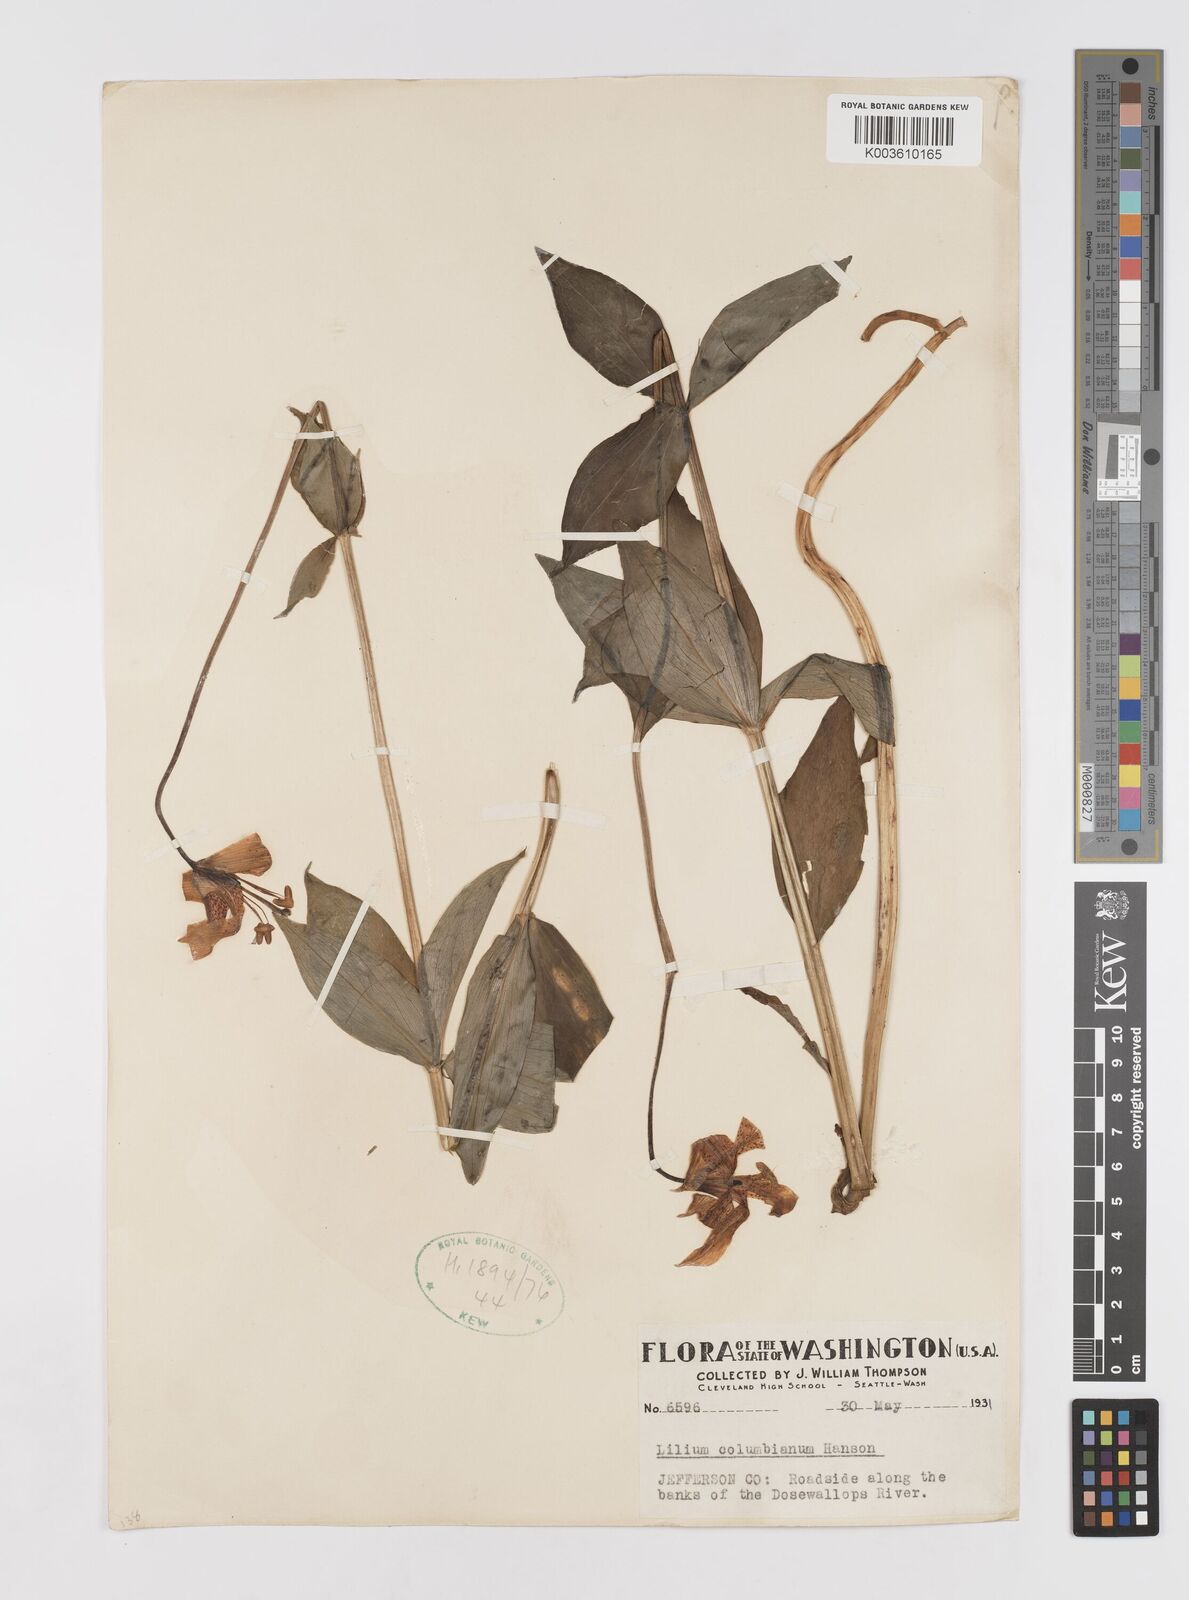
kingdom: Plantae
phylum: Tracheophyta
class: Liliopsida
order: Liliales
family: Liliaceae
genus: Lilium
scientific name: Lilium
